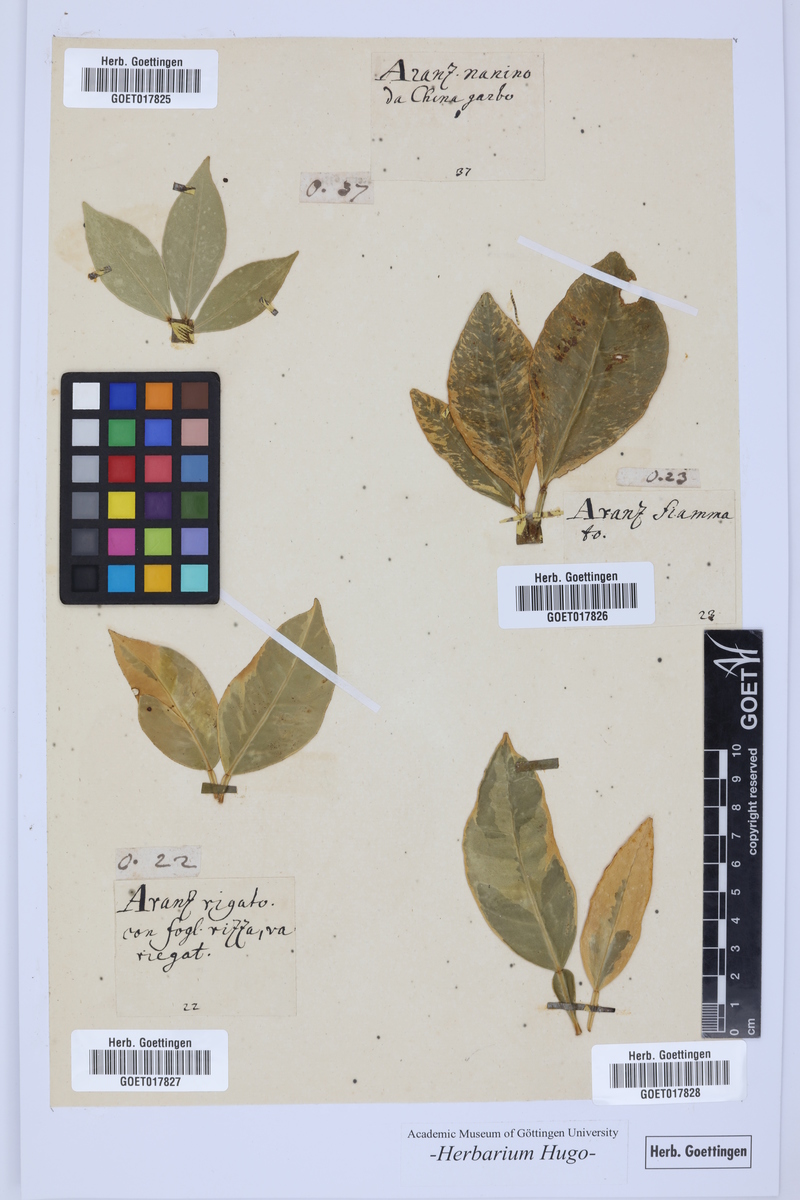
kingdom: Plantae
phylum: Tracheophyta
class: Magnoliopsida
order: Sapindales
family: Rutaceae
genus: Citrus
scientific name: Citrus
